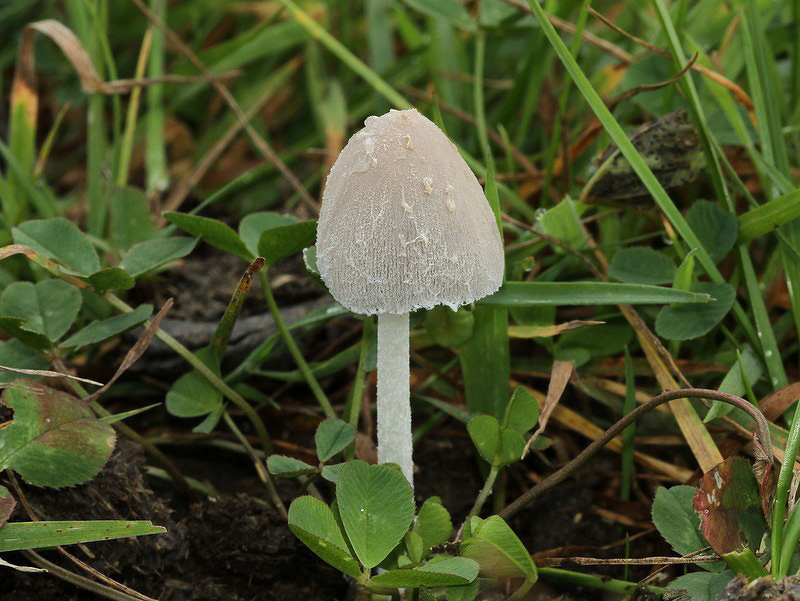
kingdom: Fungi
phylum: Basidiomycota
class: Agaricomycetes
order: Agaricales
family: Psathyrellaceae
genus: Coprinopsis
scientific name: Coprinopsis nivea
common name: snehvid blækhat
